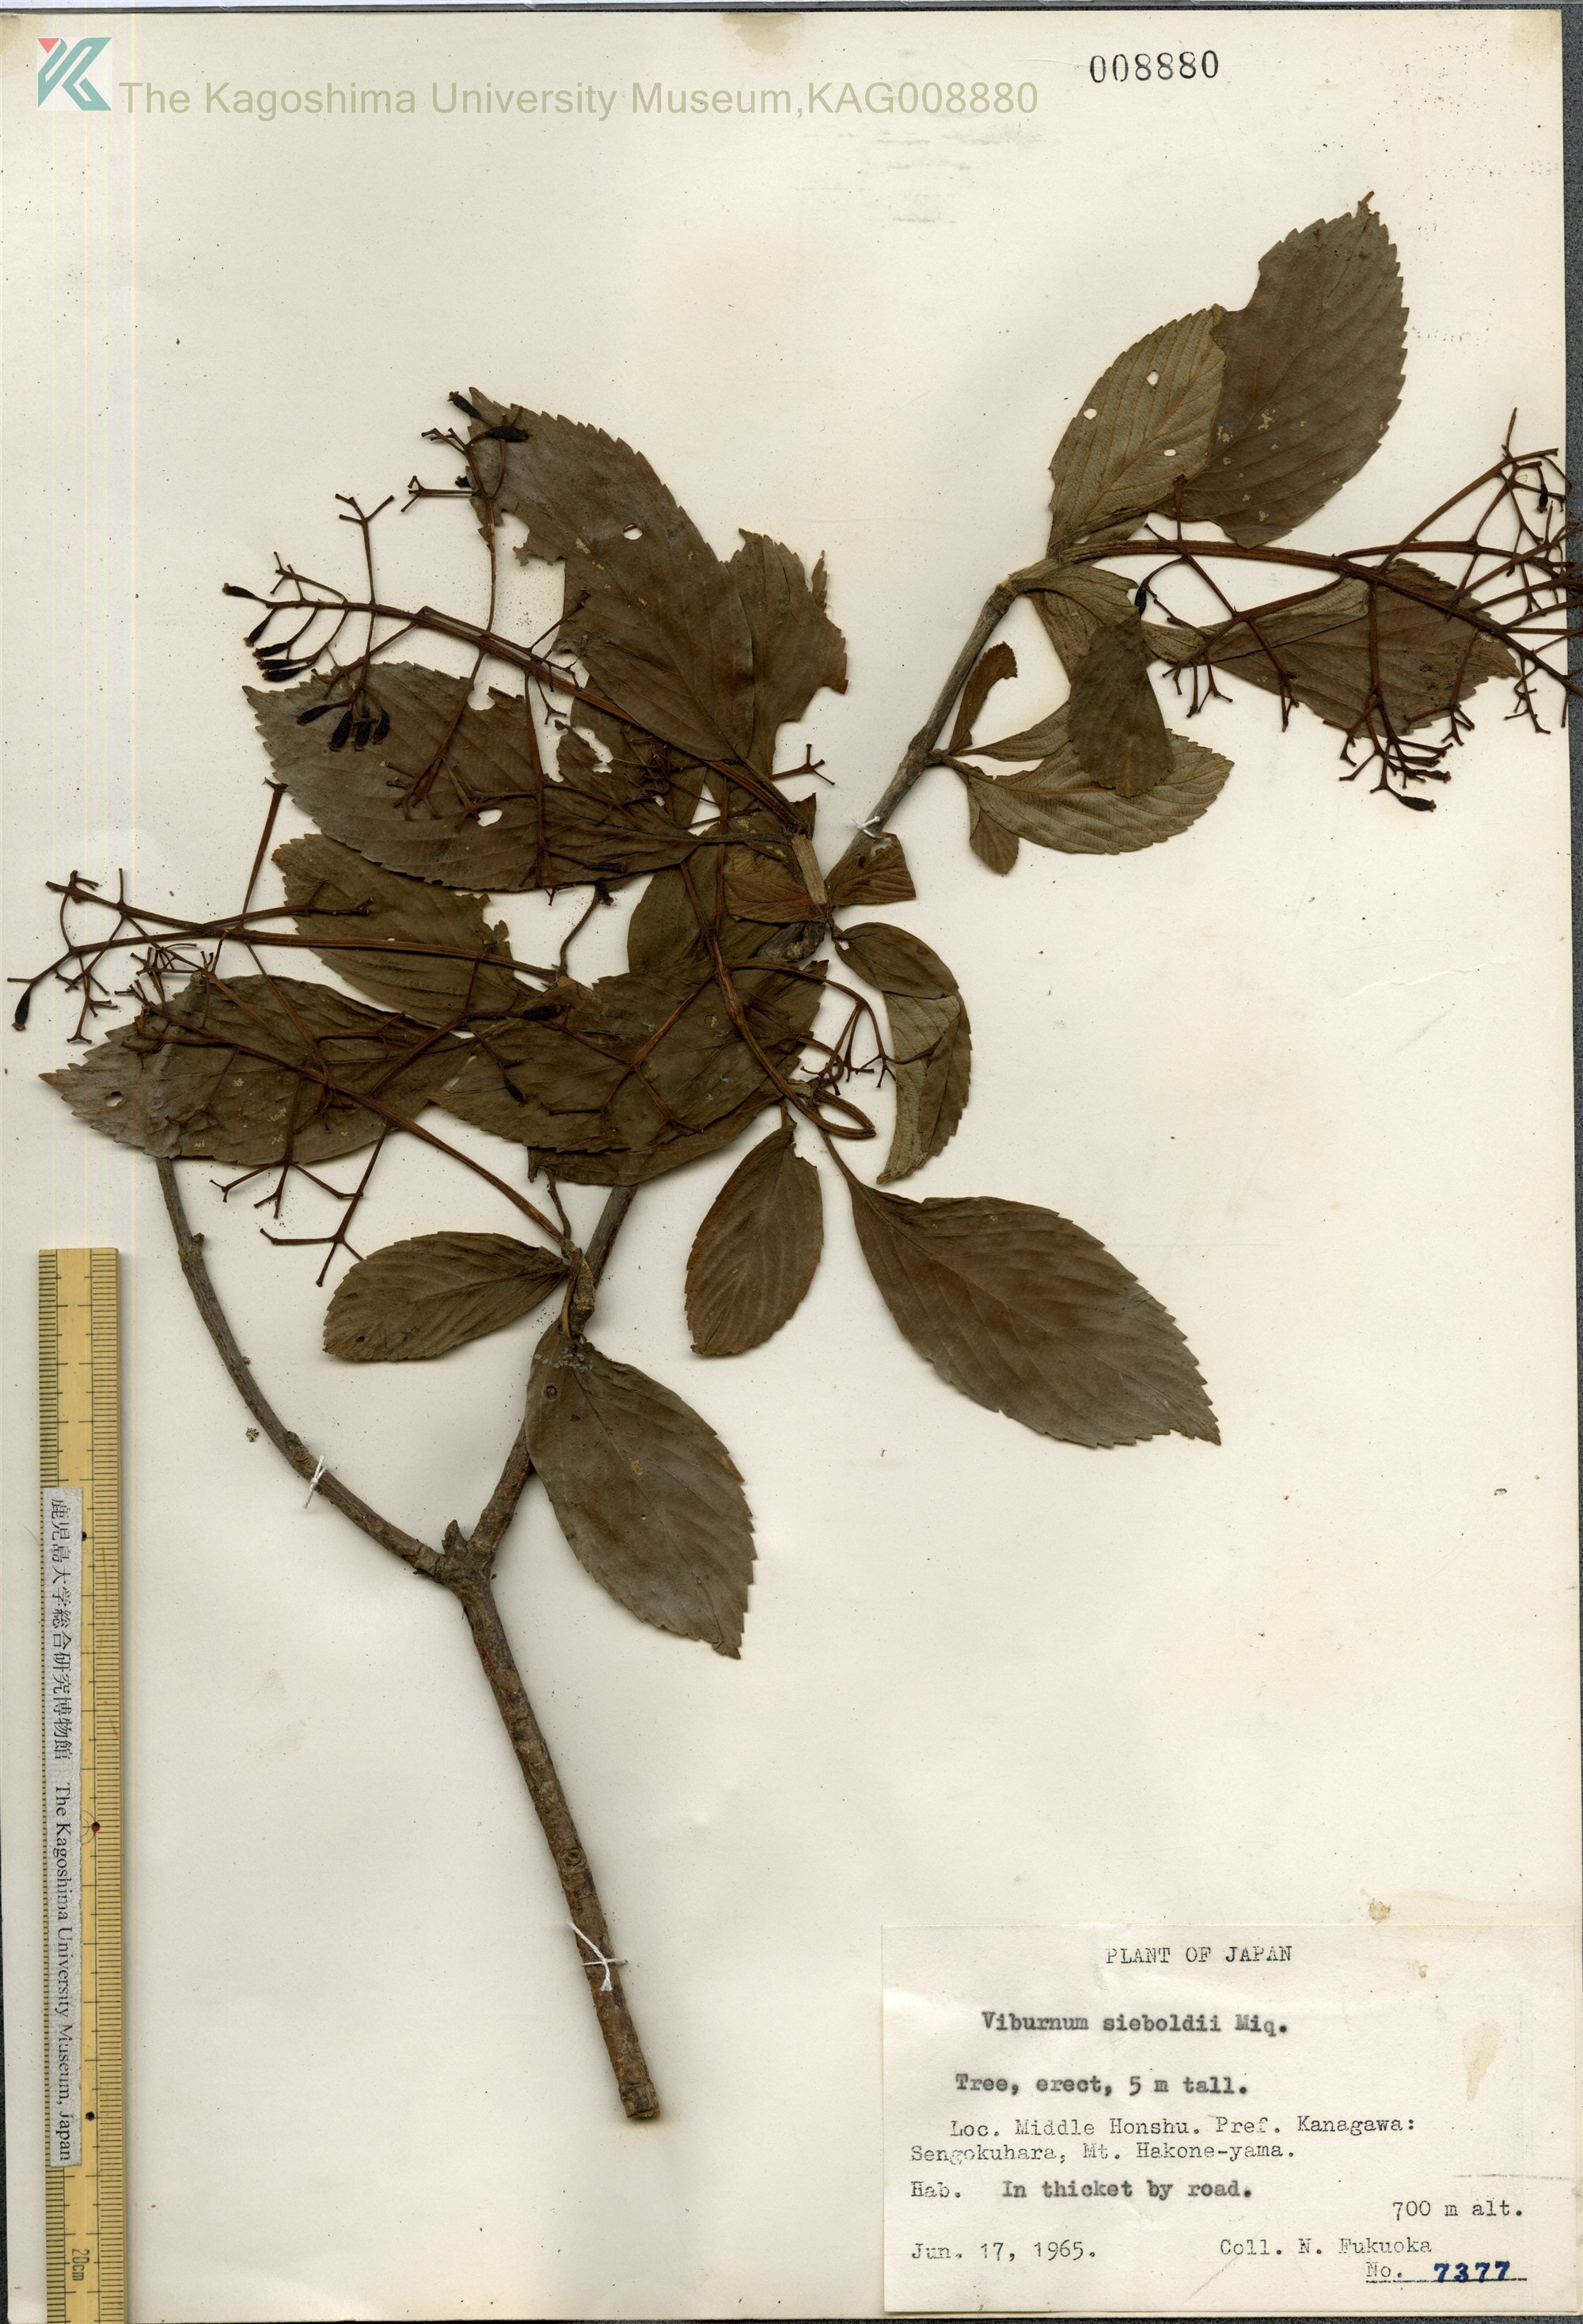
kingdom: Plantae
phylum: Tracheophyta
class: Magnoliopsida
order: Dipsacales
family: Viburnaceae
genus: Viburnum
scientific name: Viburnum sieboldii
